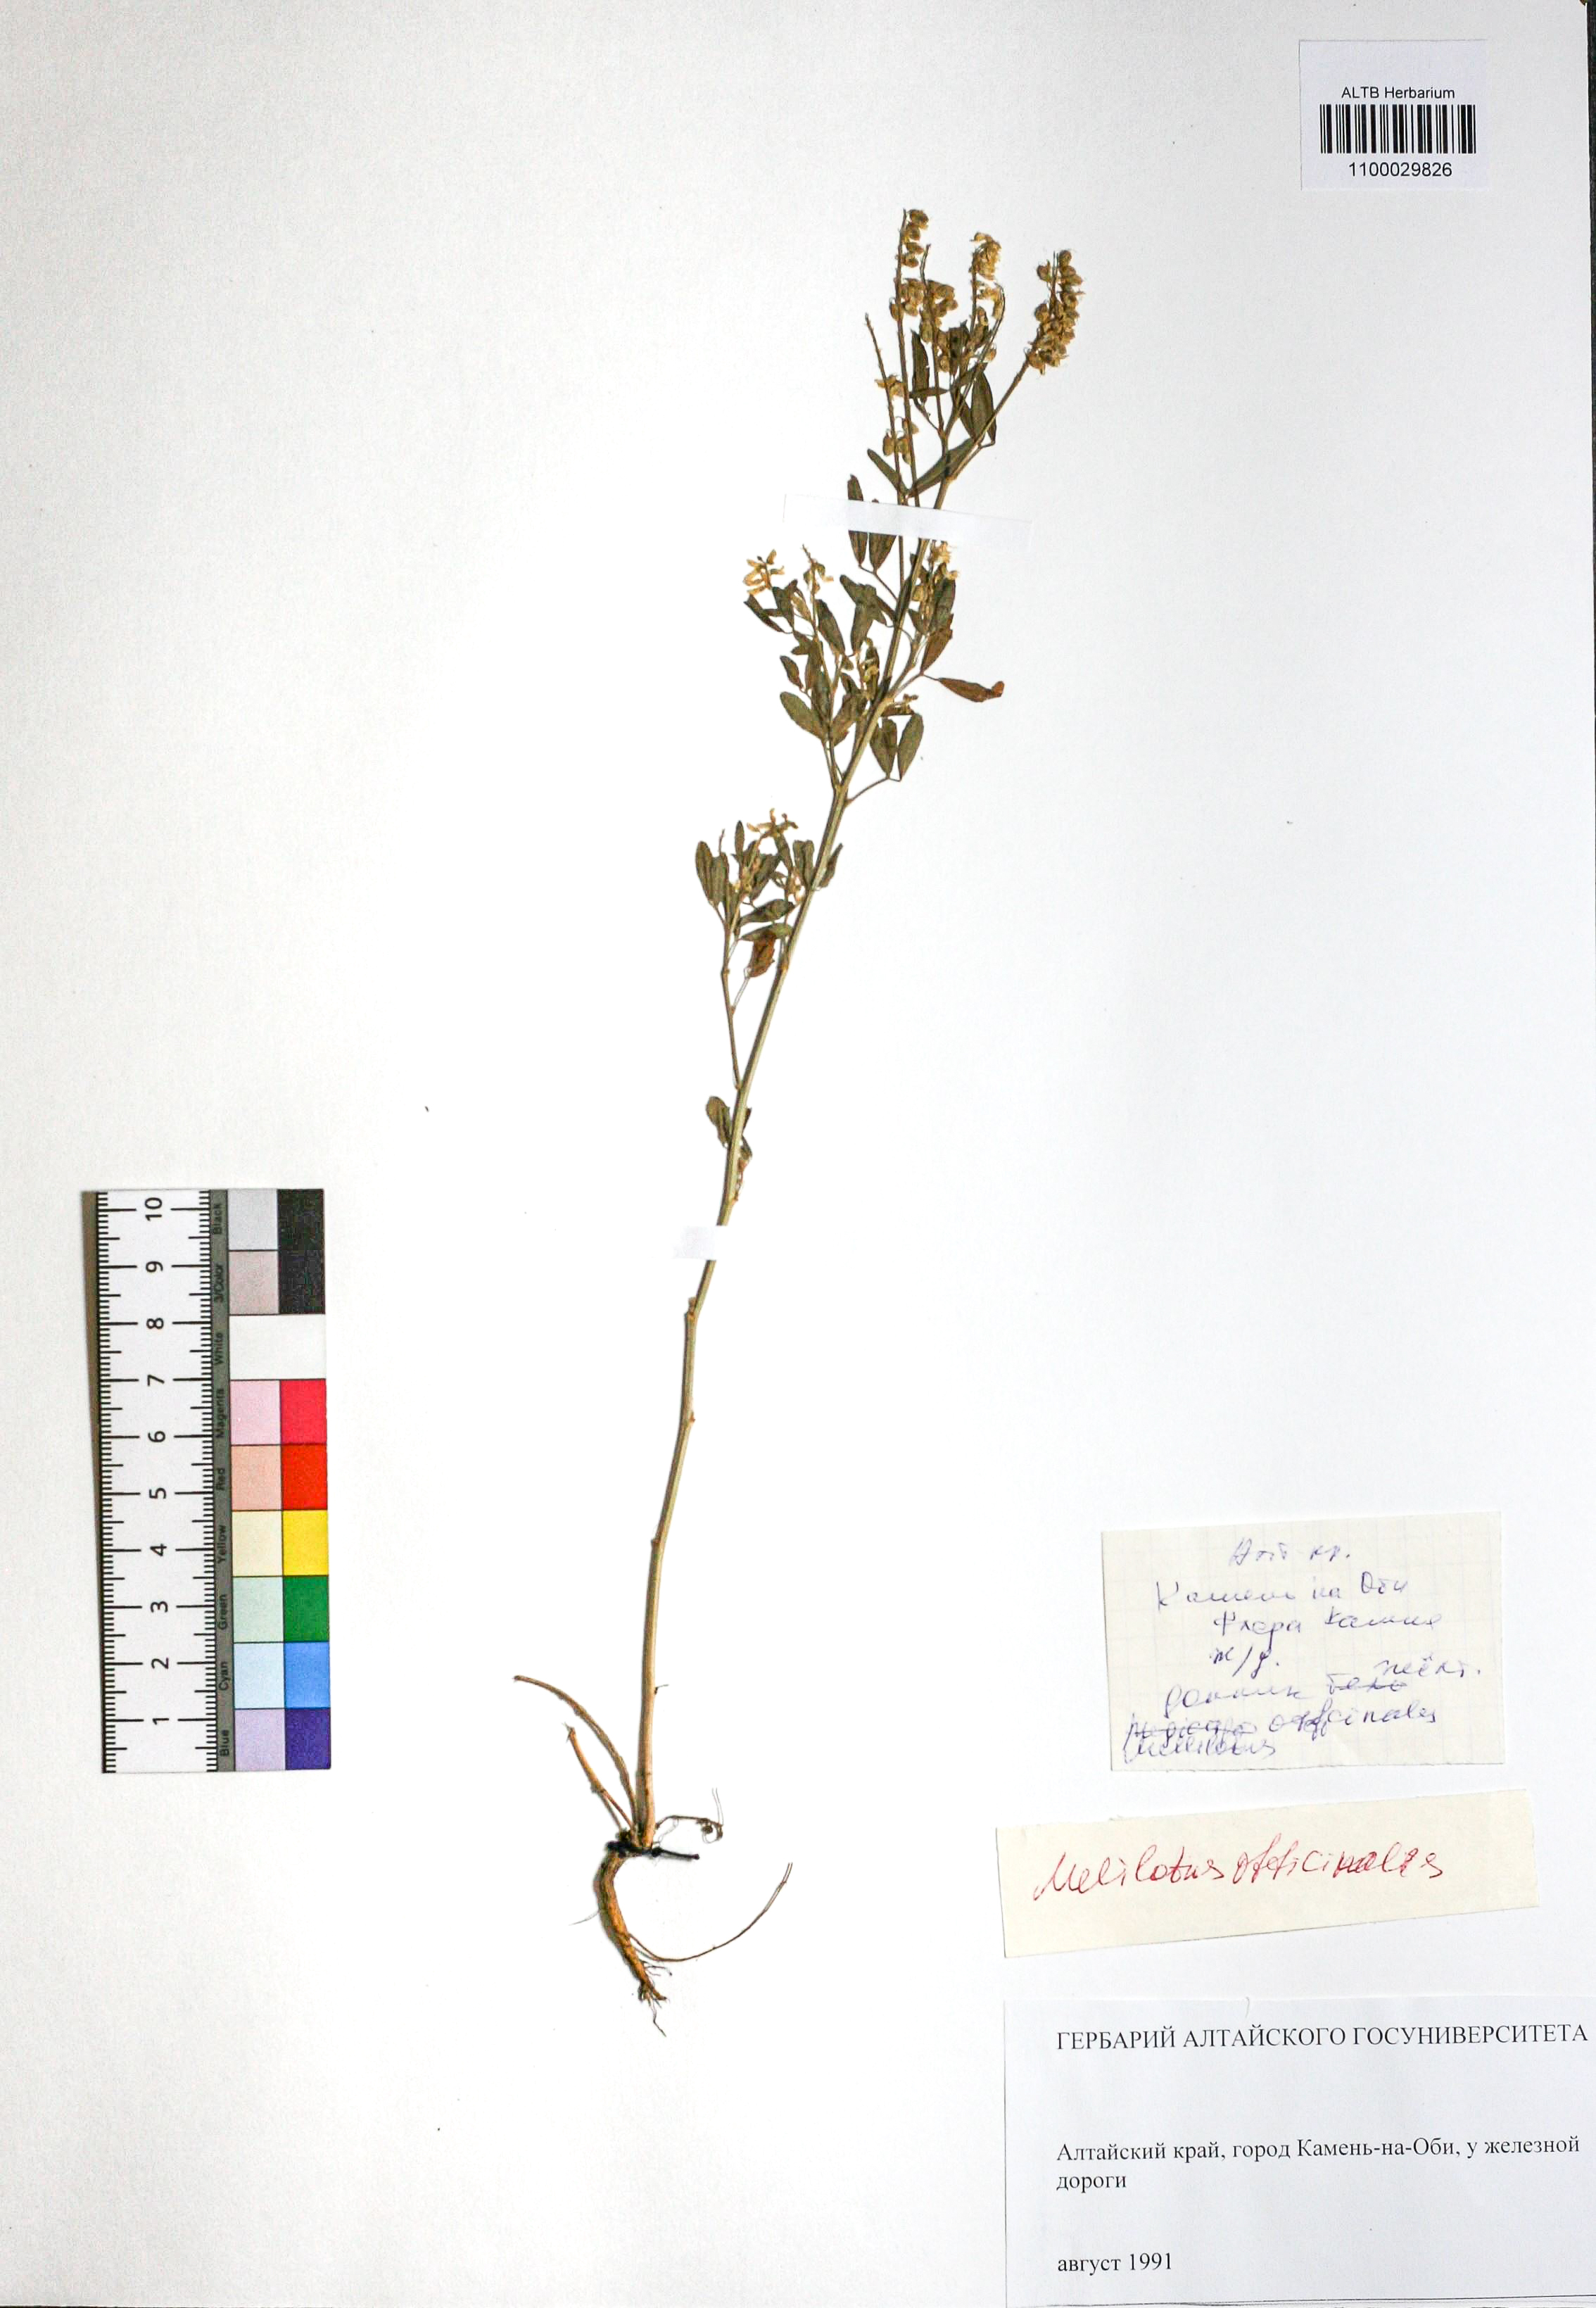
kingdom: Plantae
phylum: Tracheophyta
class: Magnoliopsida
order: Fabales
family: Fabaceae
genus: Melilotus
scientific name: Melilotus officinalis
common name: Sweetclover
